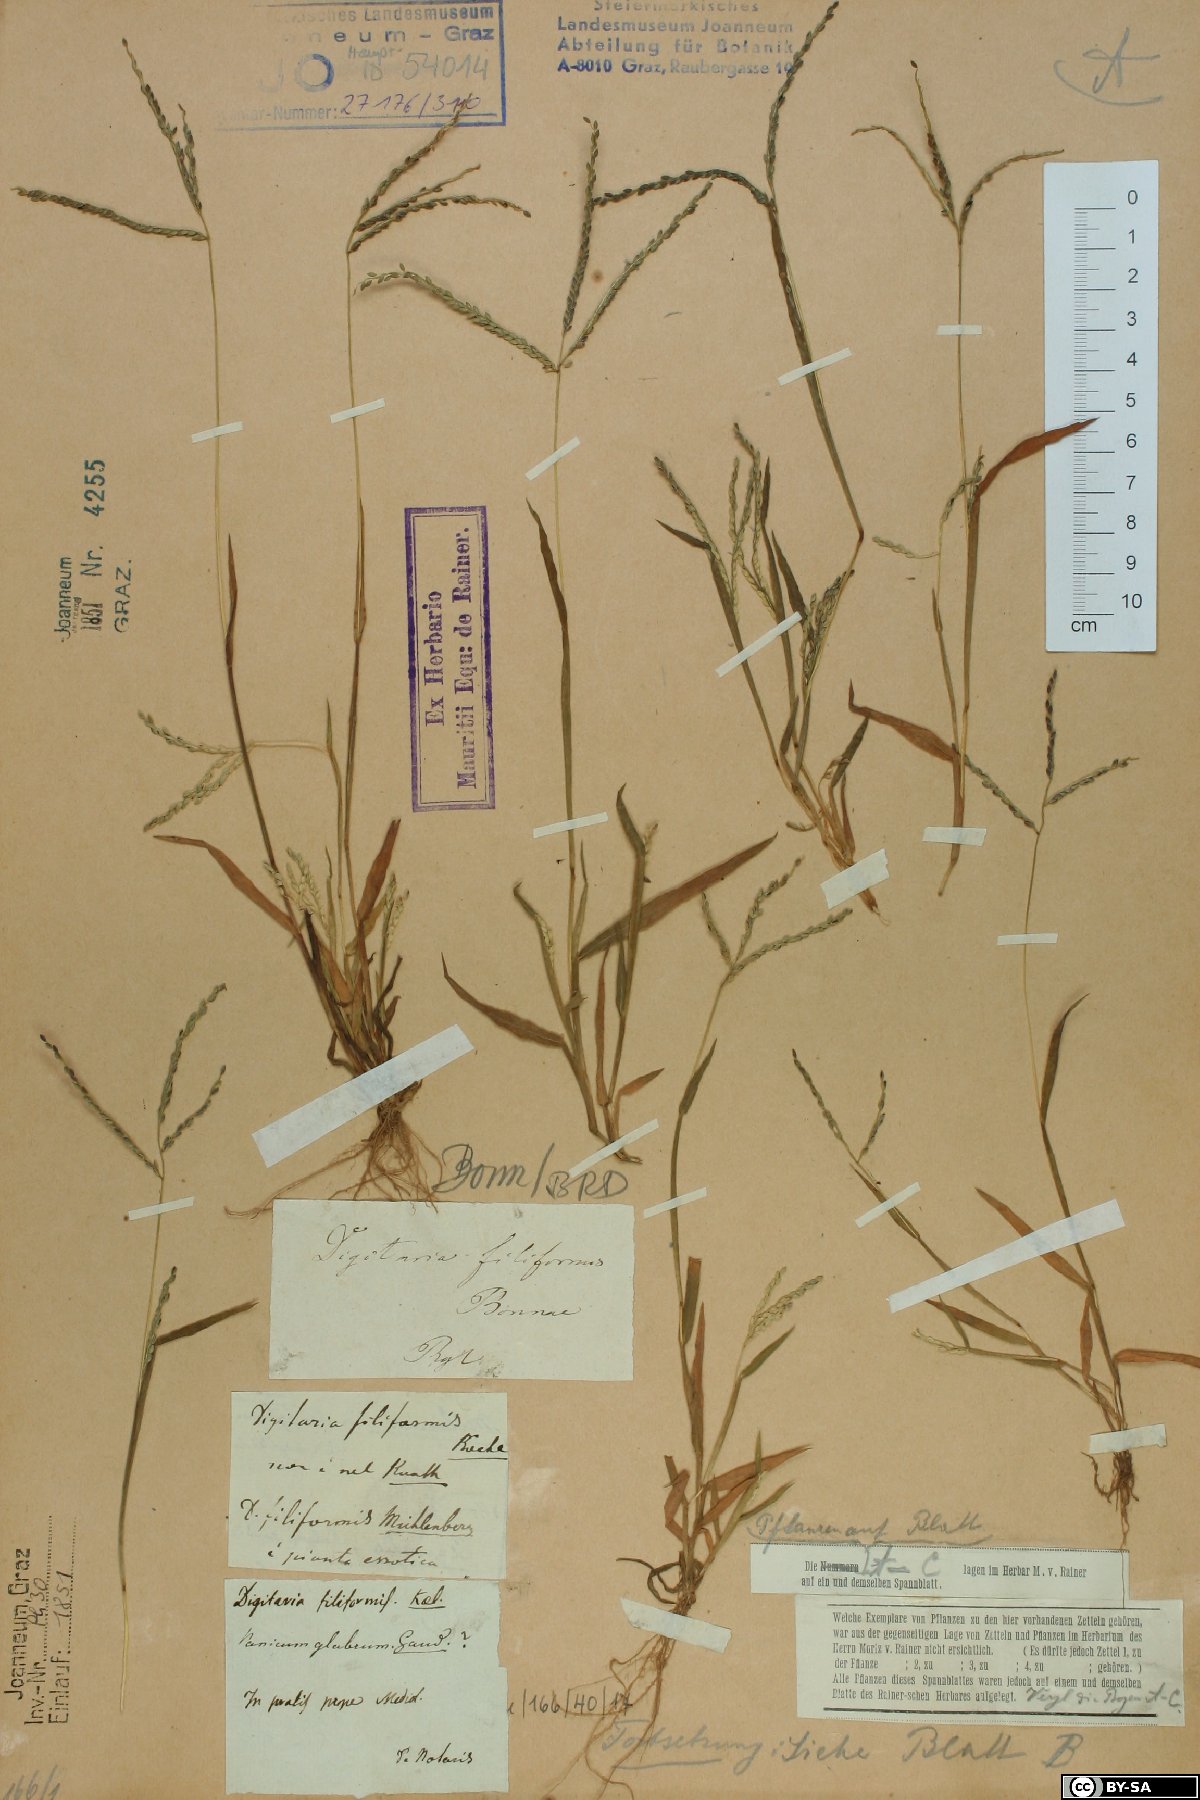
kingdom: Plantae
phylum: Tracheophyta
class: Liliopsida
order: Poales
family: Poaceae
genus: Digitaria
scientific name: Digitaria filiformis
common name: Slender crabgrass
